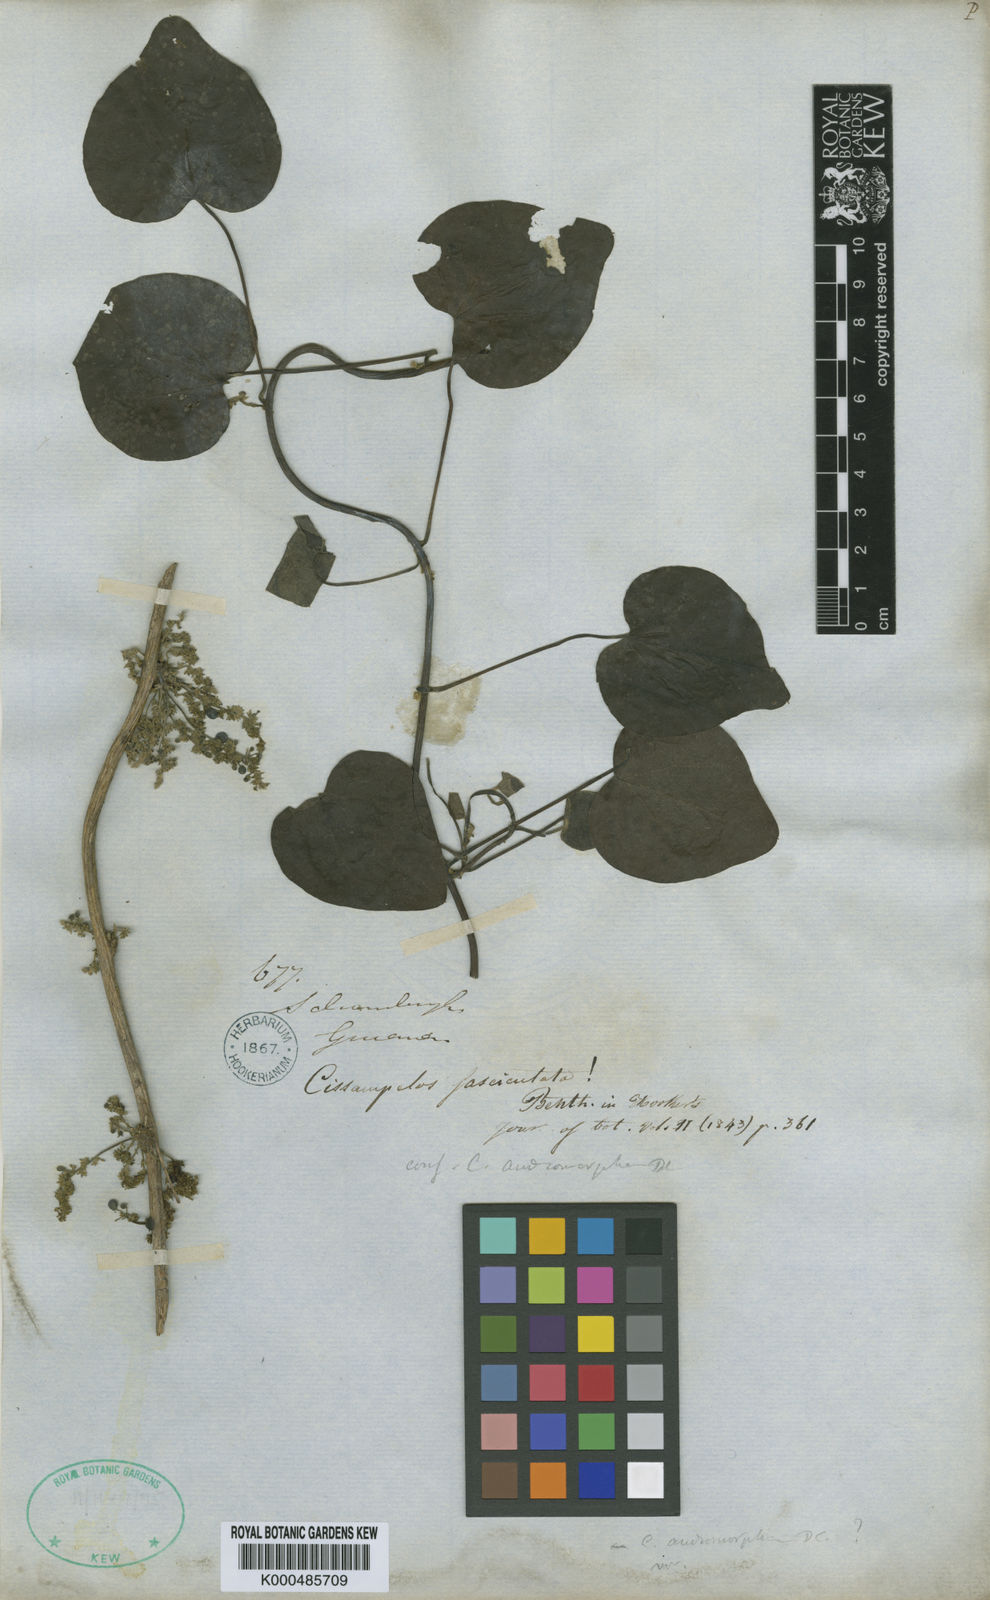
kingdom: Plantae
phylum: Tracheophyta
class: Magnoliopsida
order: Ranunculales
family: Menispermaceae
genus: Cissampelos
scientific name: Cissampelos fasciculata
